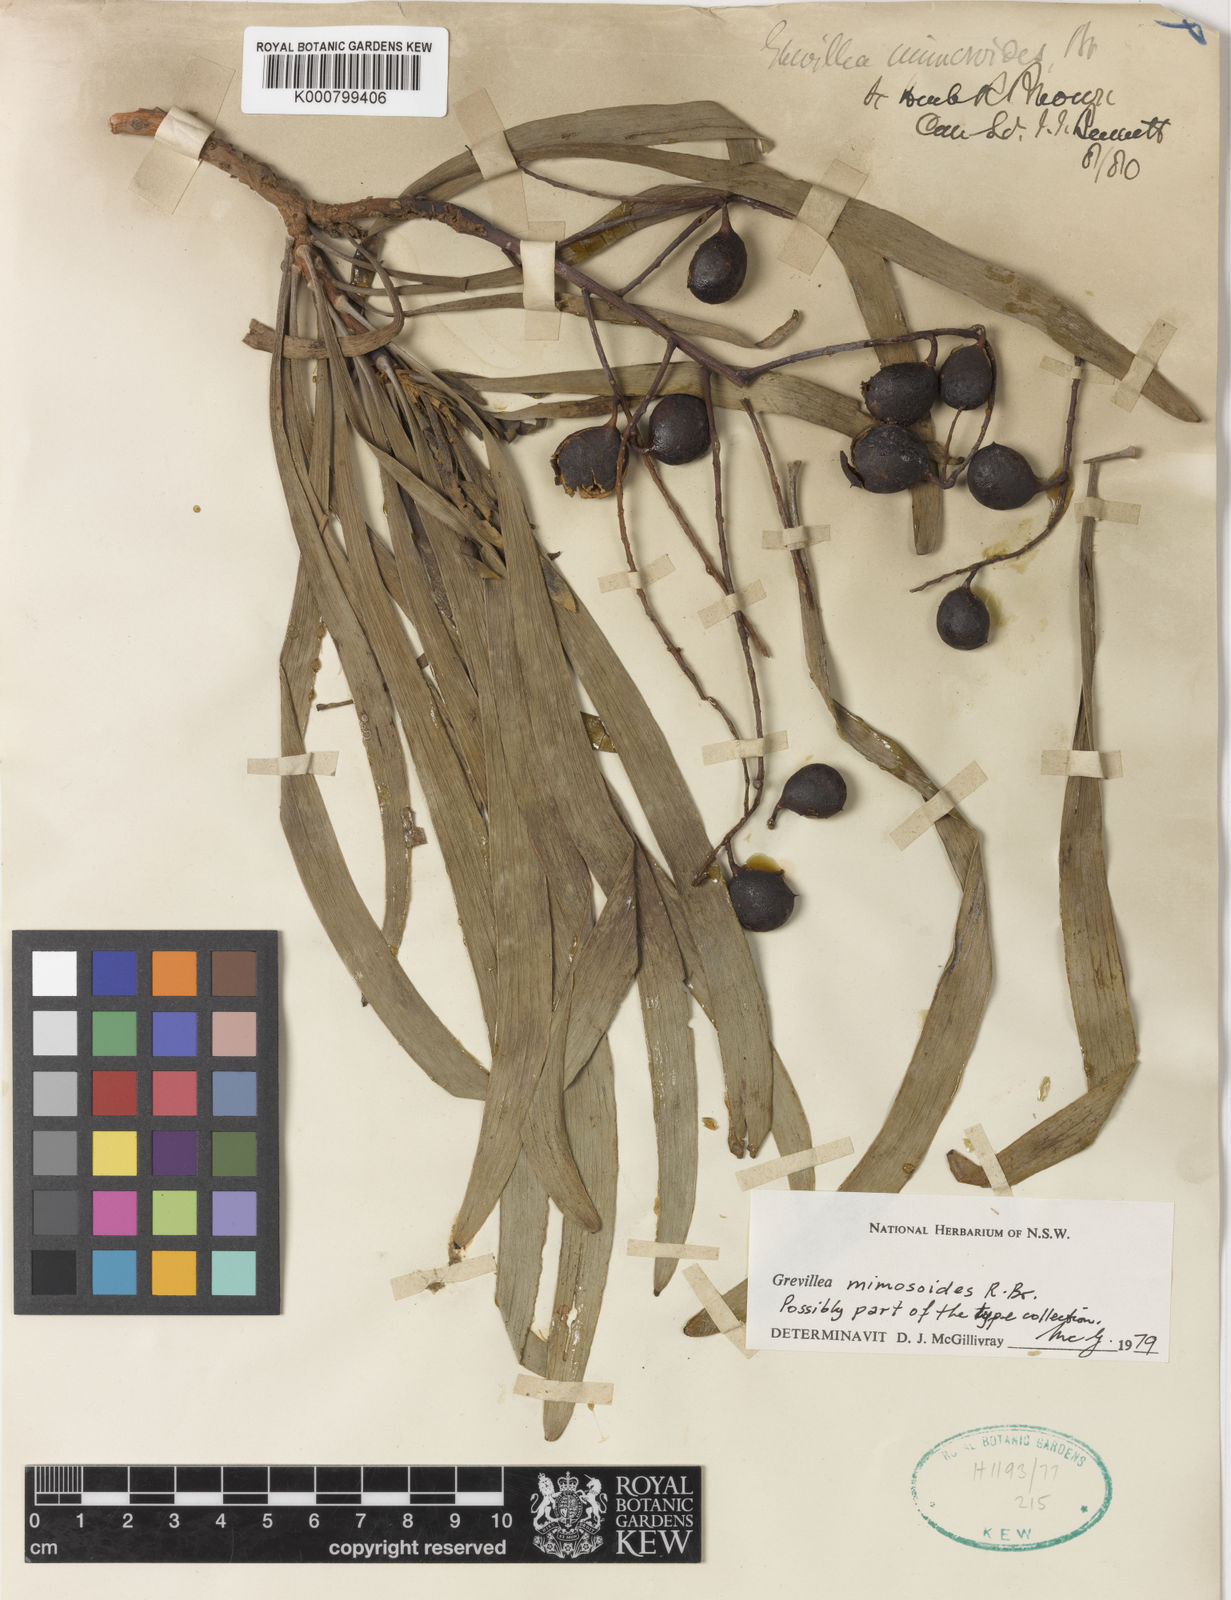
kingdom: Plantae
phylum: Tracheophyta
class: Magnoliopsida
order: Proteales
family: Proteaceae
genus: Grevillea
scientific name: Grevillea mimosoides
